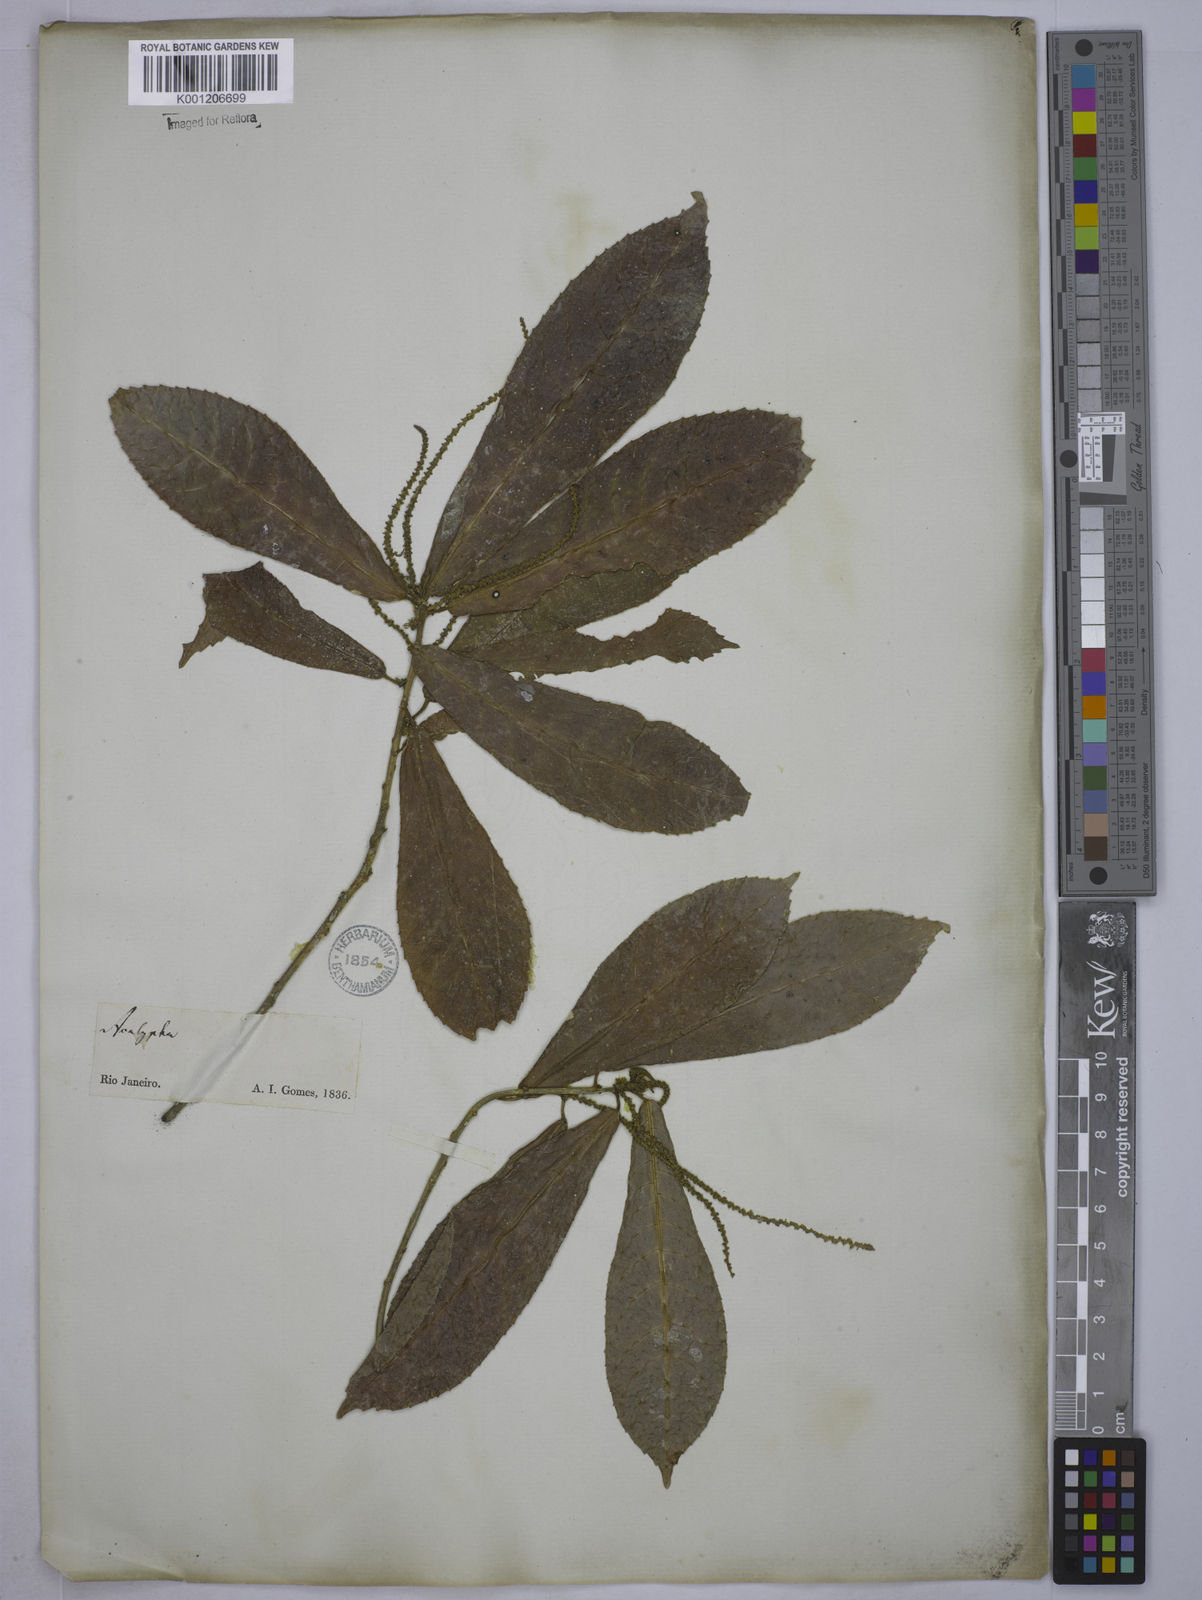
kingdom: Plantae
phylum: Tracheophyta
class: Magnoliopsida
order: Malpighiales
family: Euphorbiaceae
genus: Acalypha
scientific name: Acalypha klotzschii
